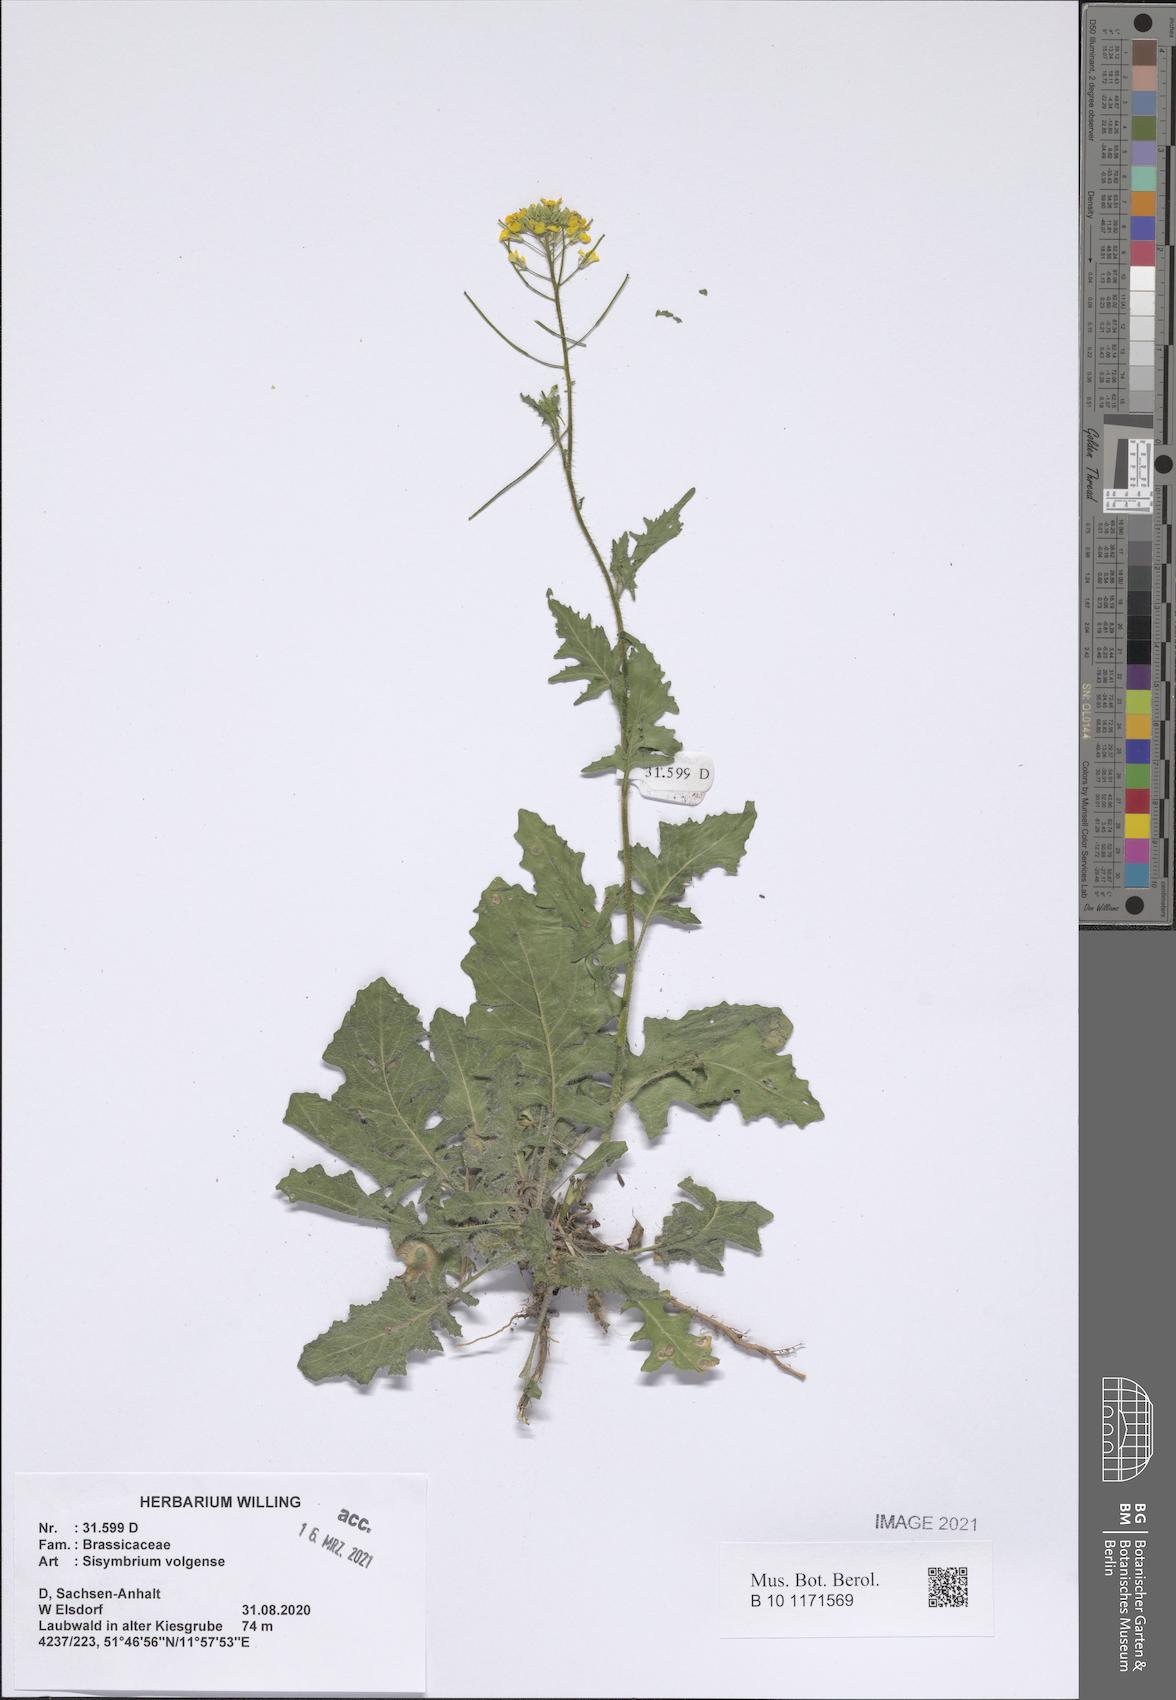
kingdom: Plantae
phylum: Tracheophyta
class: Magnoliopsida
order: Brassicales
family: Brassicaceae
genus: Sisymbrium
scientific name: Sisymbrium volgense
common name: Russian mustard
